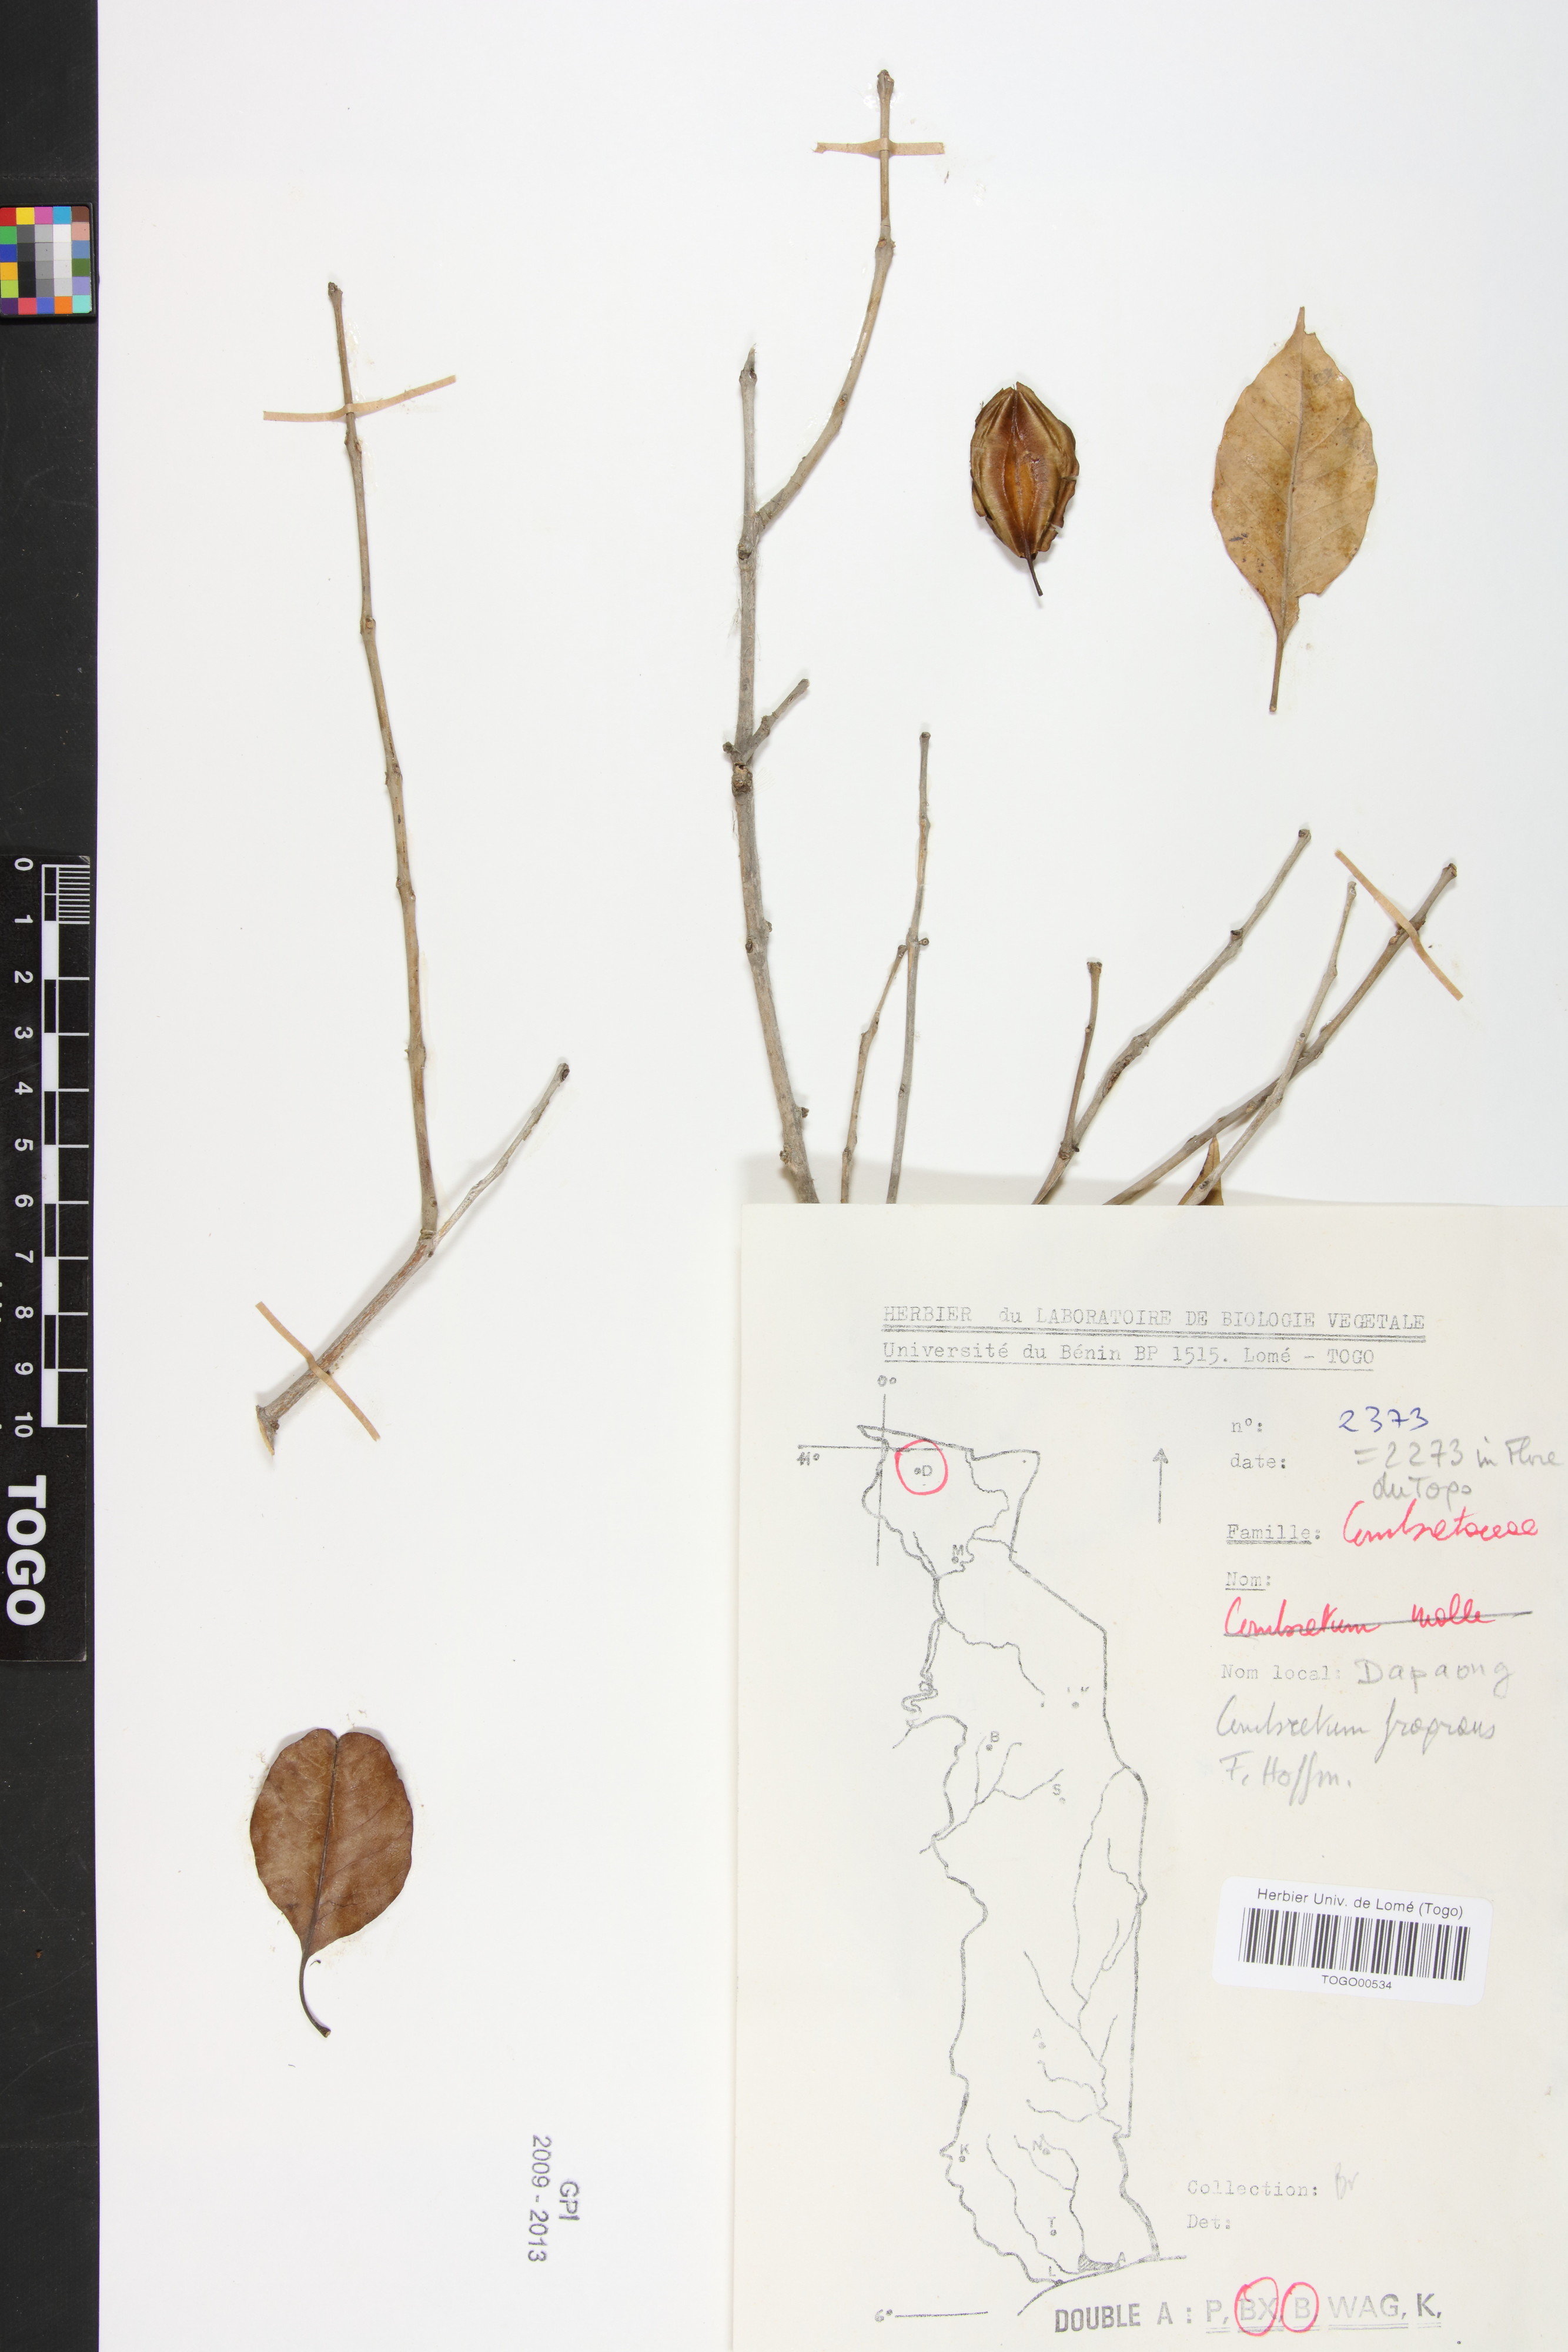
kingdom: Plantae
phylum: Tracheophyta
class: Magnoliopsida
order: Myrtales
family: Combretaceae
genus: Combretum
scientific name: Combretum adenogonium
